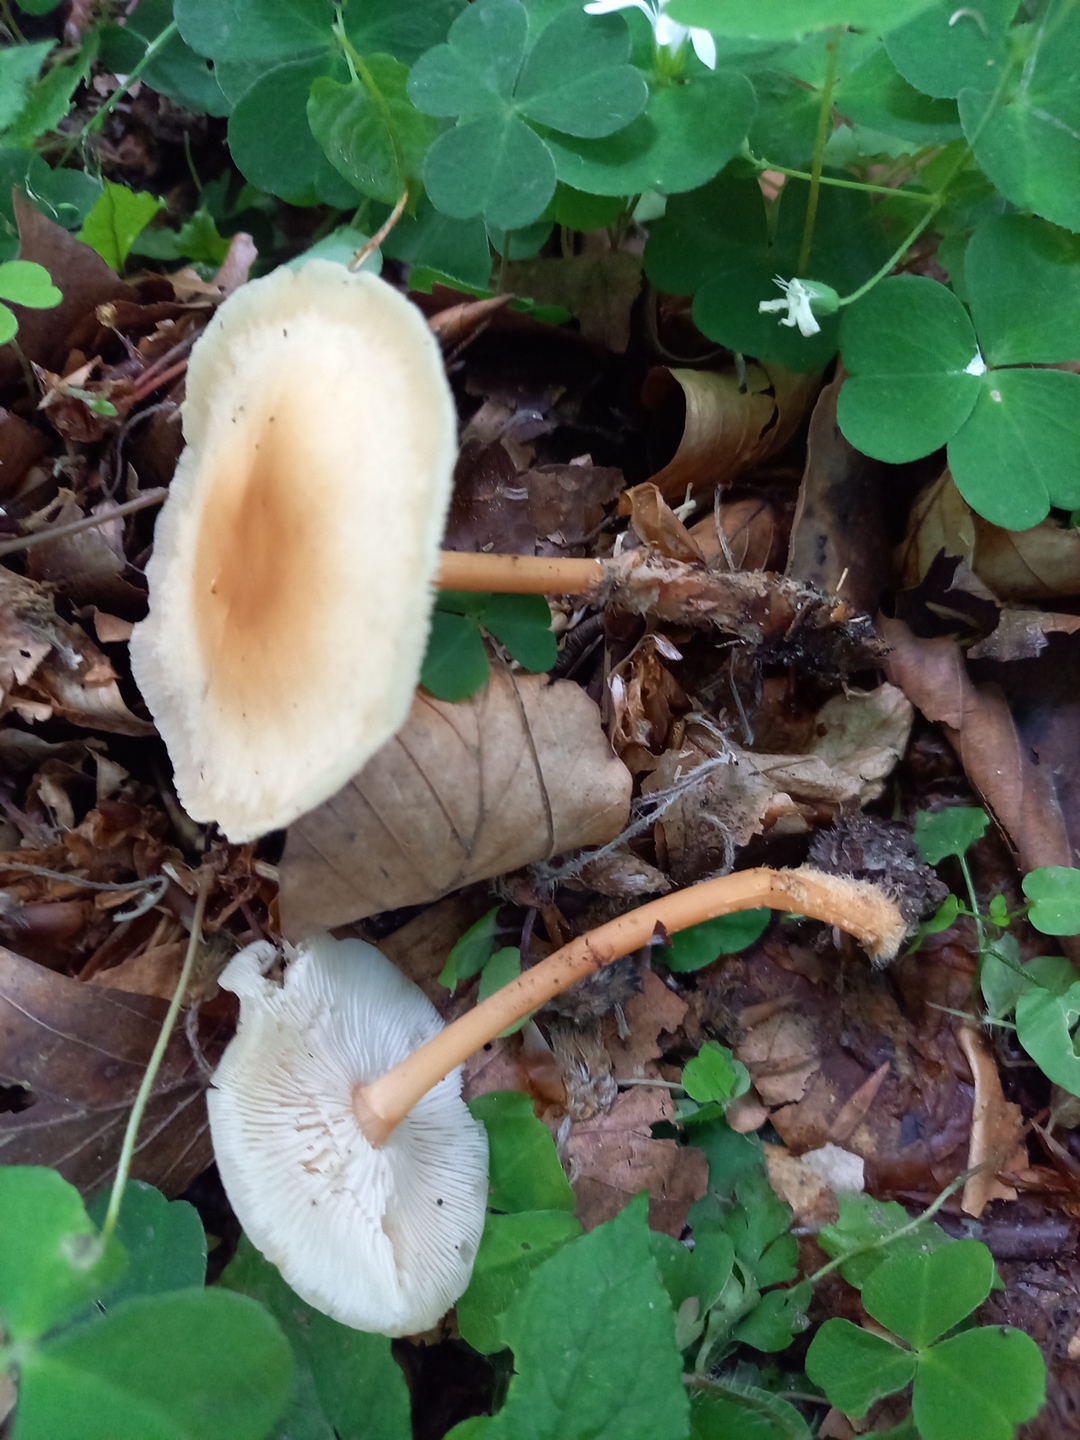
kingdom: Fungi
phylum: Basidiomycota
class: Agaricomycetes
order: Agaricales
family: Omphalotaceae
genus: Gymnopus
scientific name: Gymnopus dryophilus
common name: løv-fladhat
